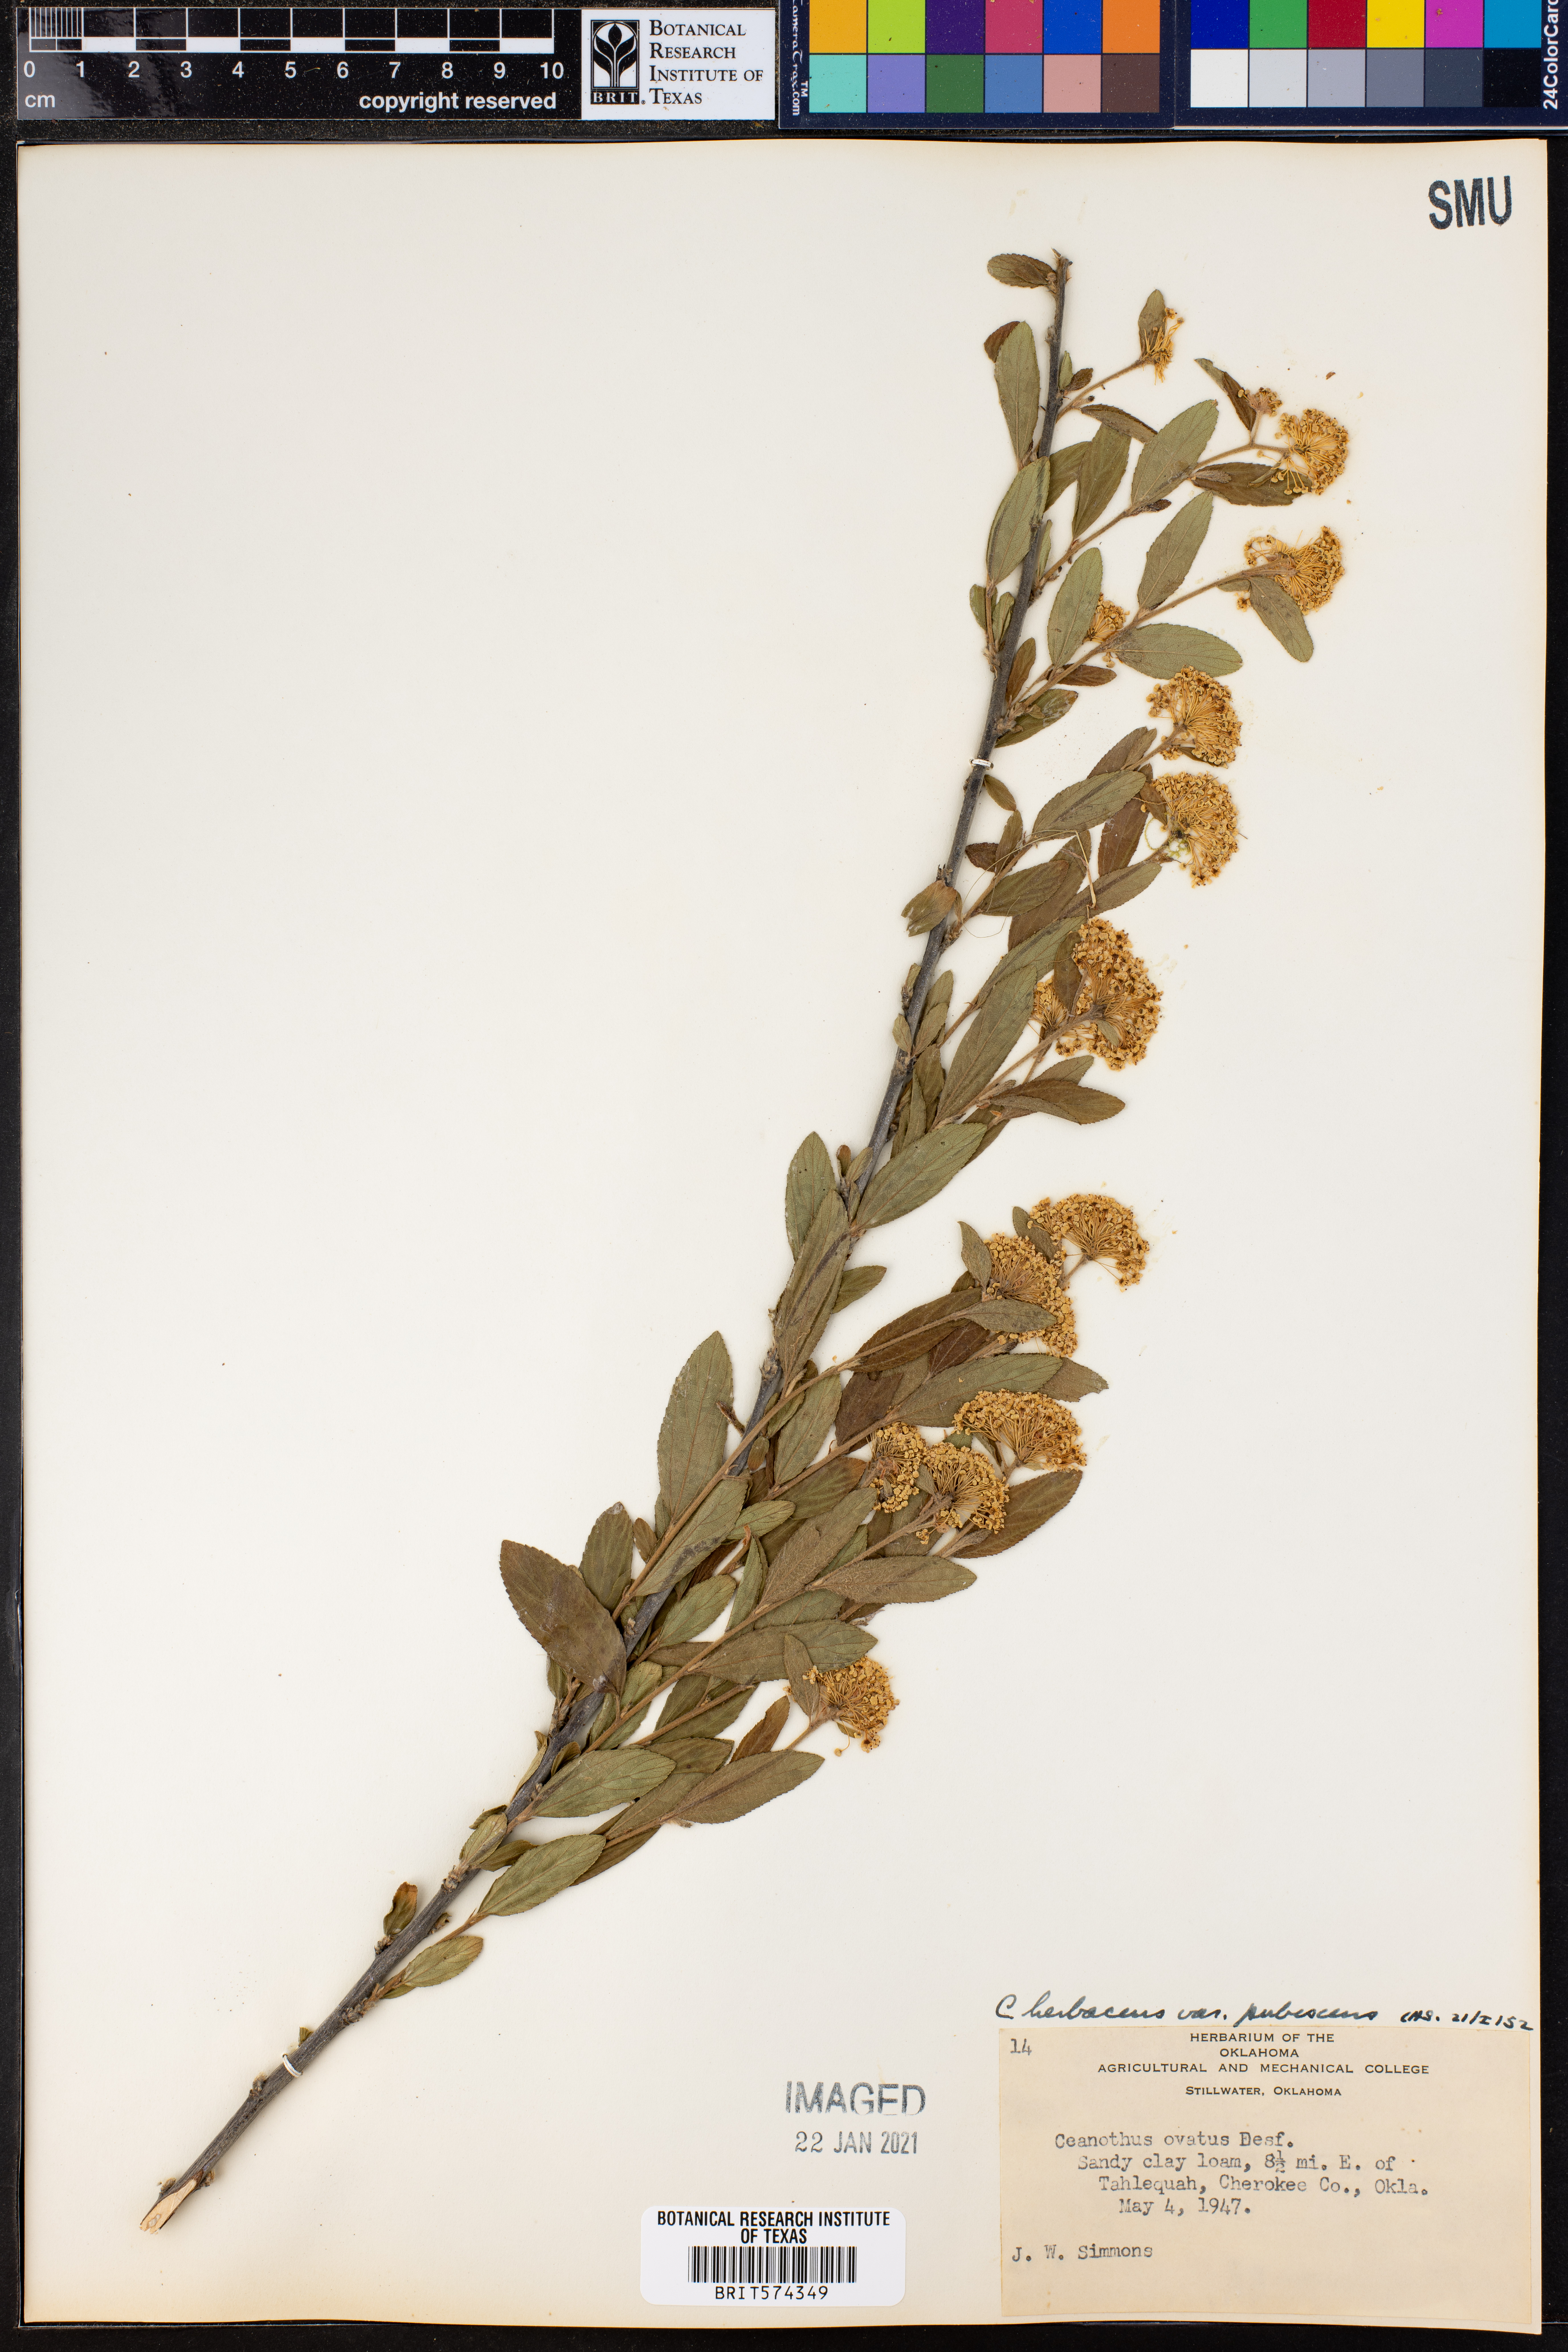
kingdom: Plantae
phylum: Tracheophyta
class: Magnoliopsida
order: Rosales
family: Rhamnaceae
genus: Ceanothus
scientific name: Ceanothus herbaceus
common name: Inland ceanothus
